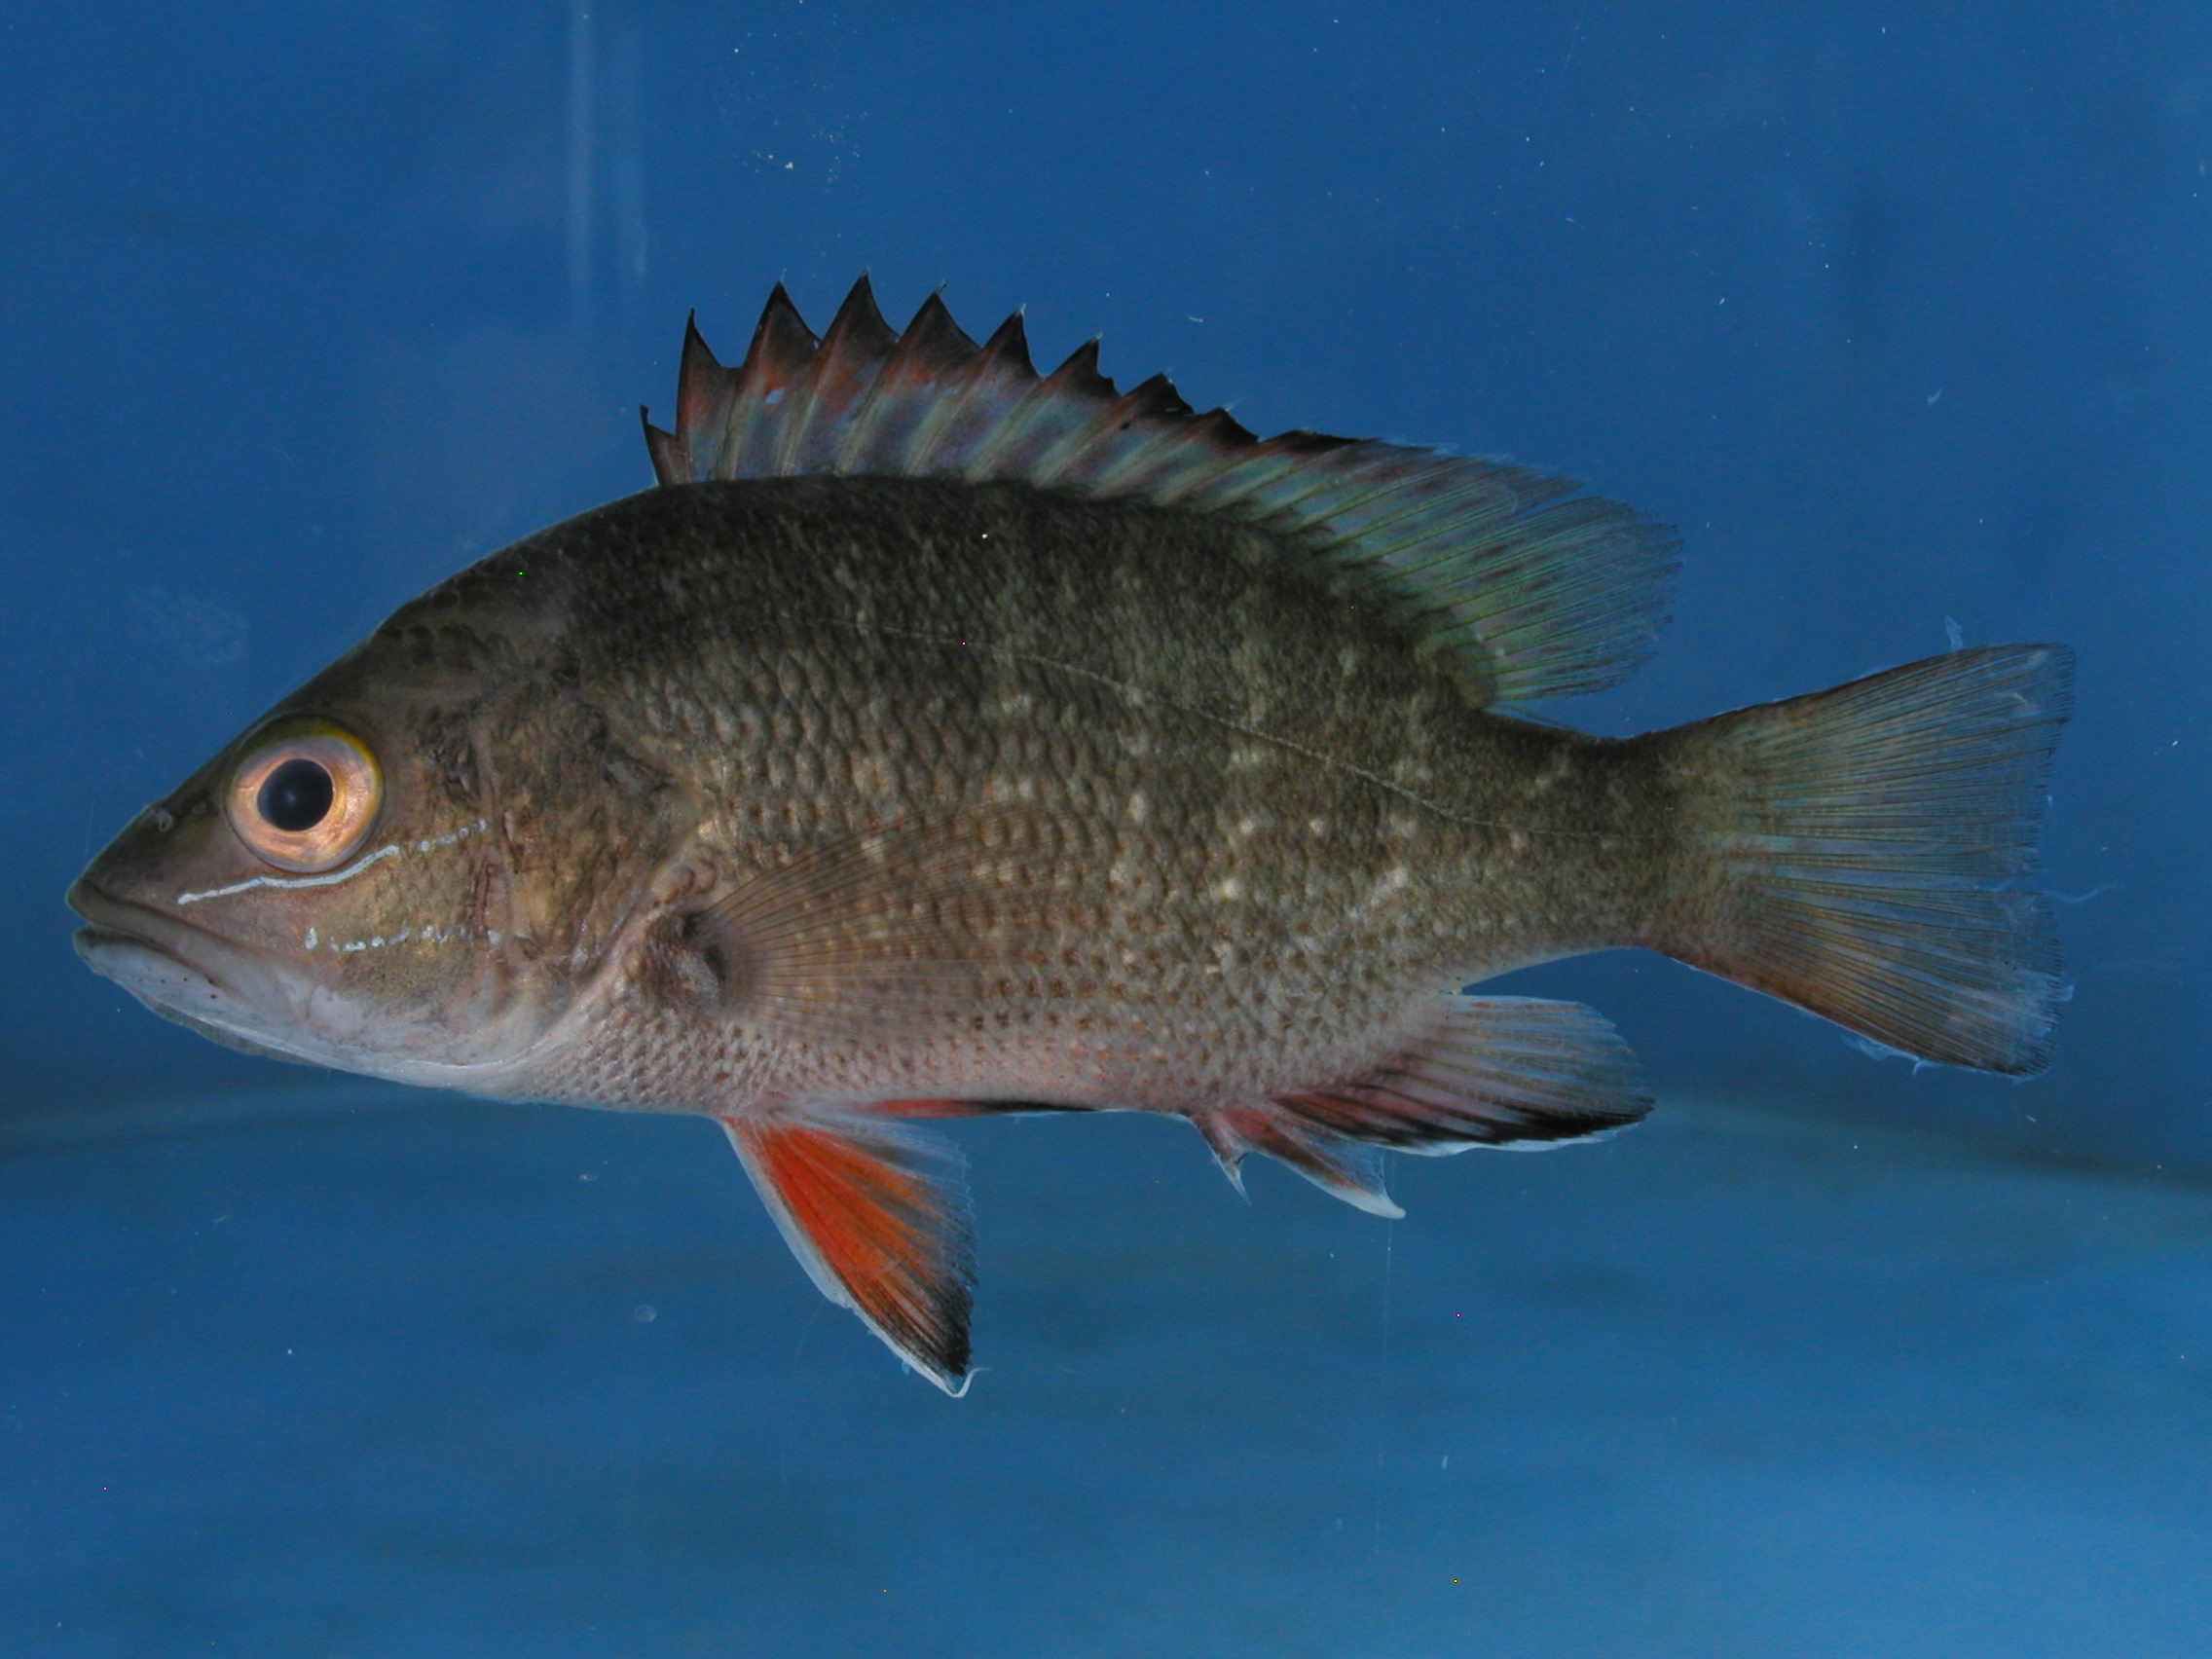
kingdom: Animalia
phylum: Chordata
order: Perciformes
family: Lutjanidae
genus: Lutjanus
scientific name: Lutjanus argentimaculatus
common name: Mangrove red snapper
